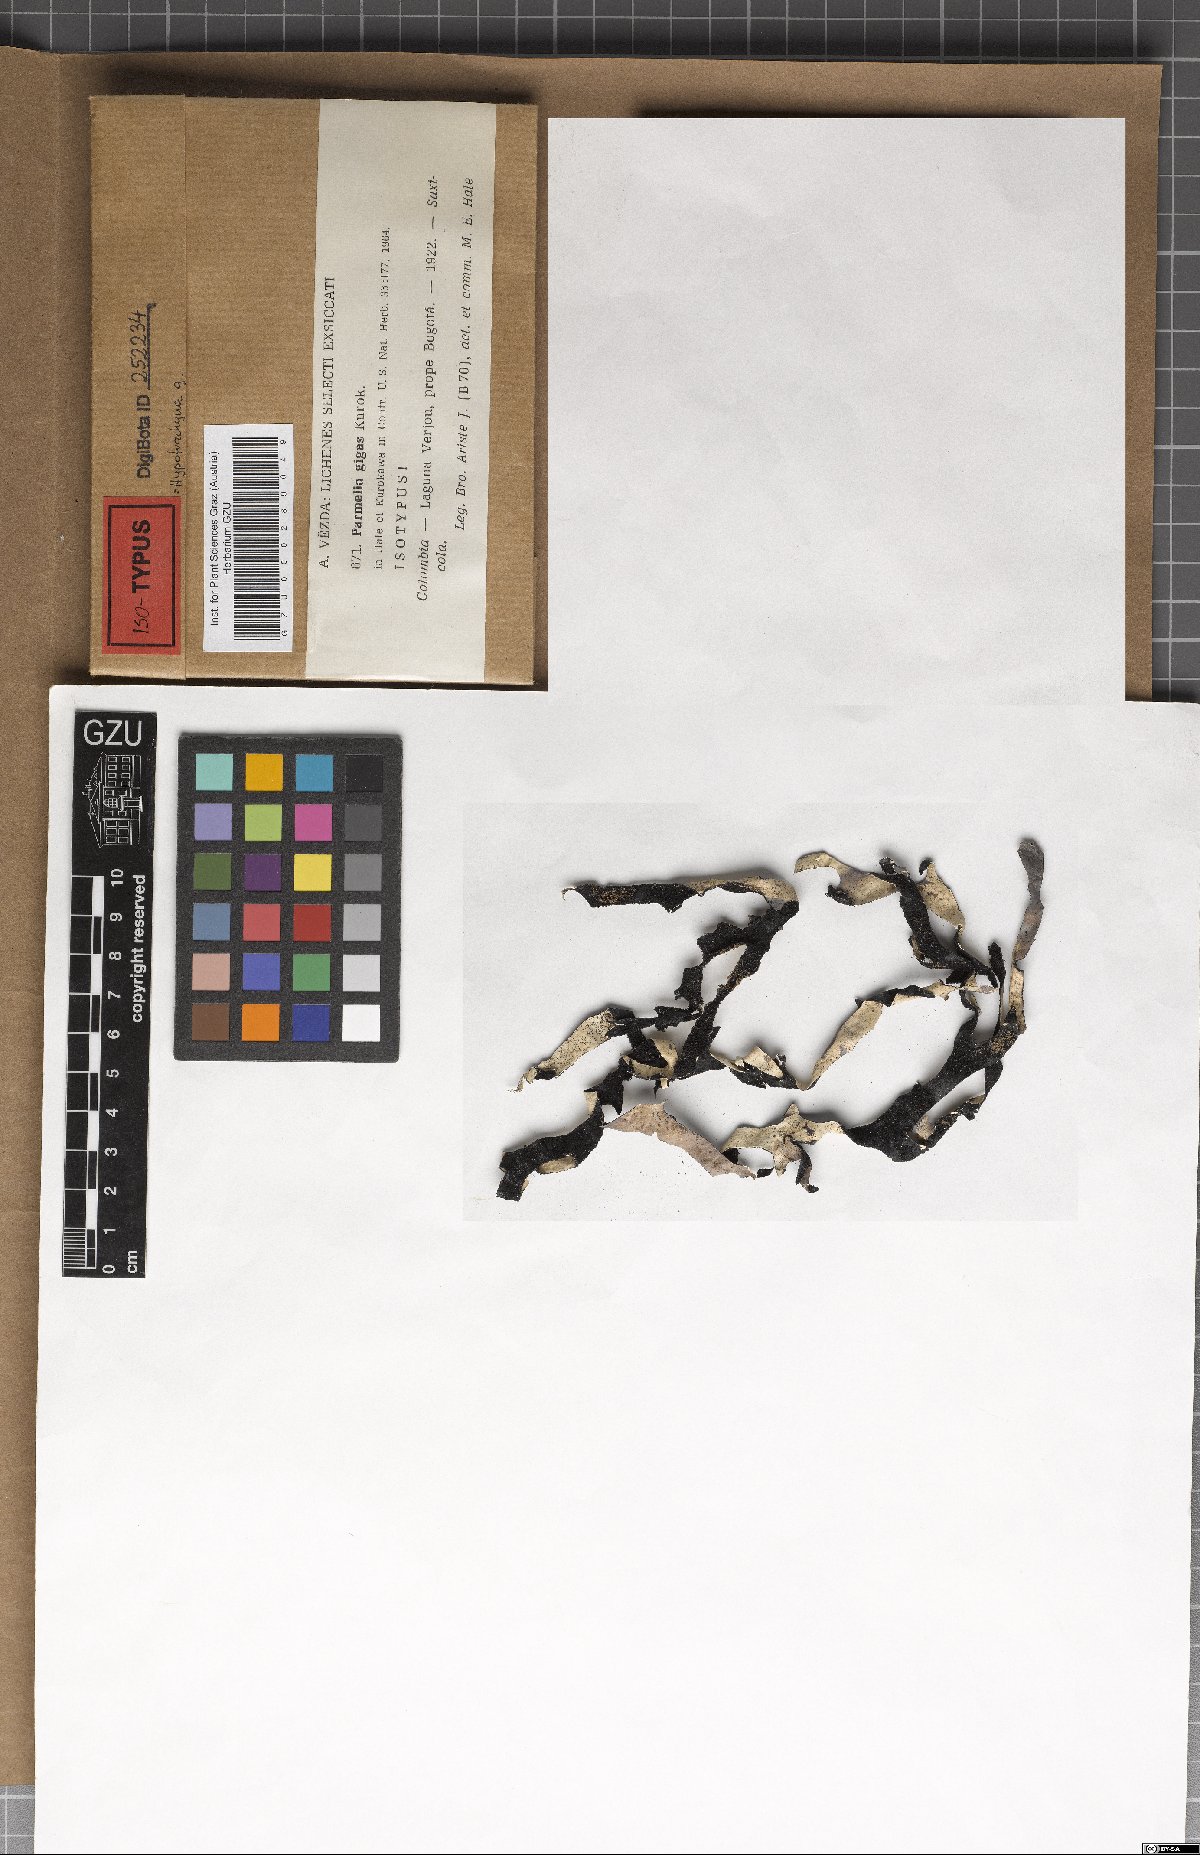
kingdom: Fungi
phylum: Ascomycota
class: Lecanoromycetes
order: Lecanorales
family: Parmeliaceae
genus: Hypotrachyna
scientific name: Hypotrachyna gigas
